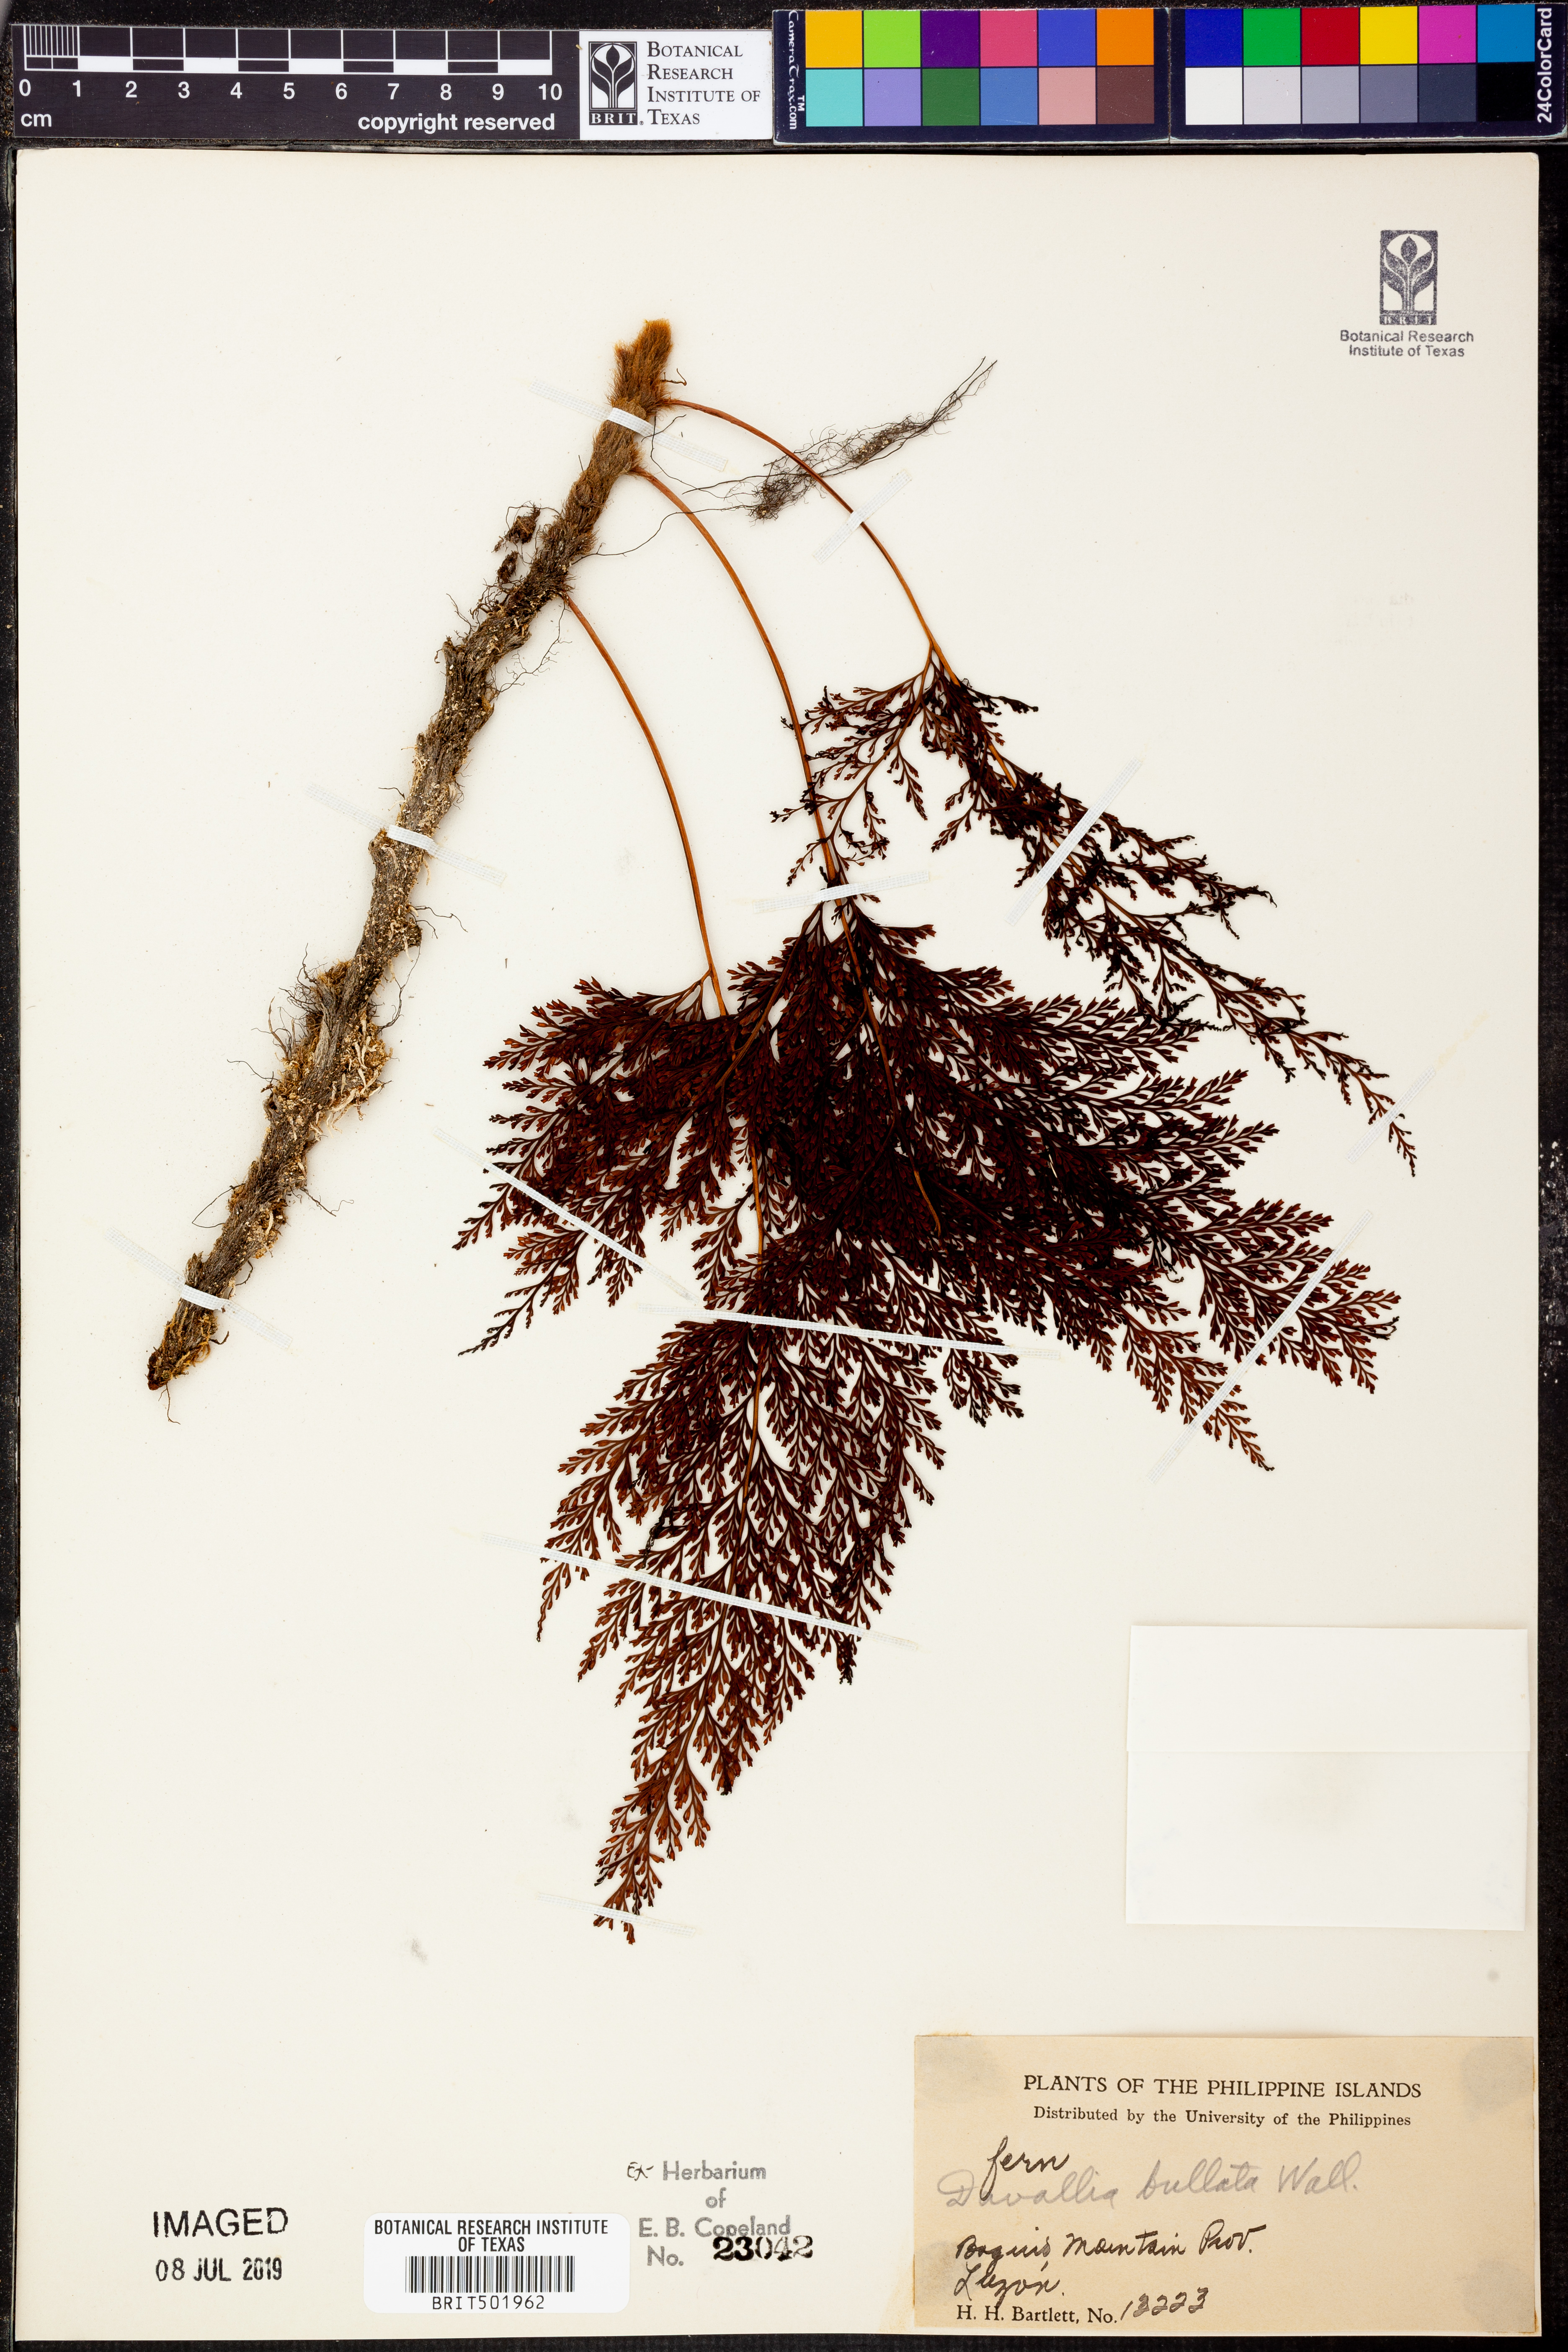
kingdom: Plantae
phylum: Tracheophyta
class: Polypodiopsida
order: Polypodiales
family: Davalliaceae
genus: Davallia
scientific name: Davallia bullata
